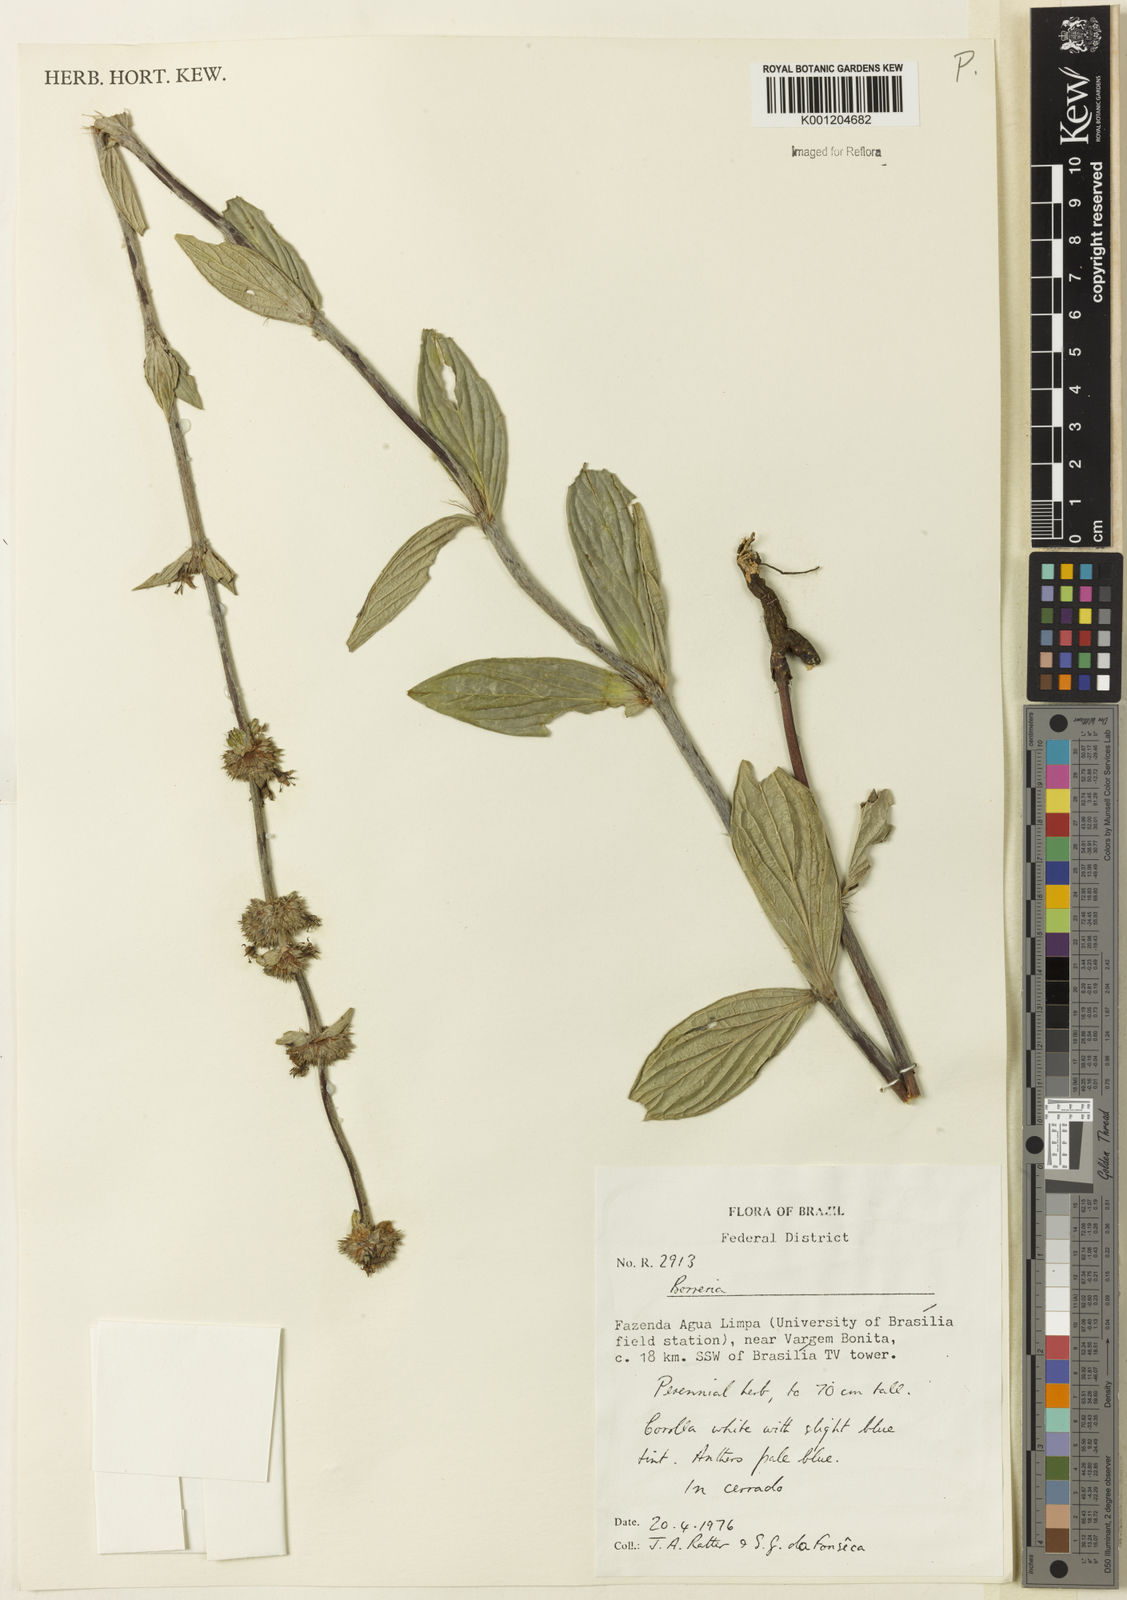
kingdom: Plantae
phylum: Tracheophyta
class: Magnoliopsida
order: Gentianales
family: Rubiaceae
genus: Planaltina
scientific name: Planaltina capitata
